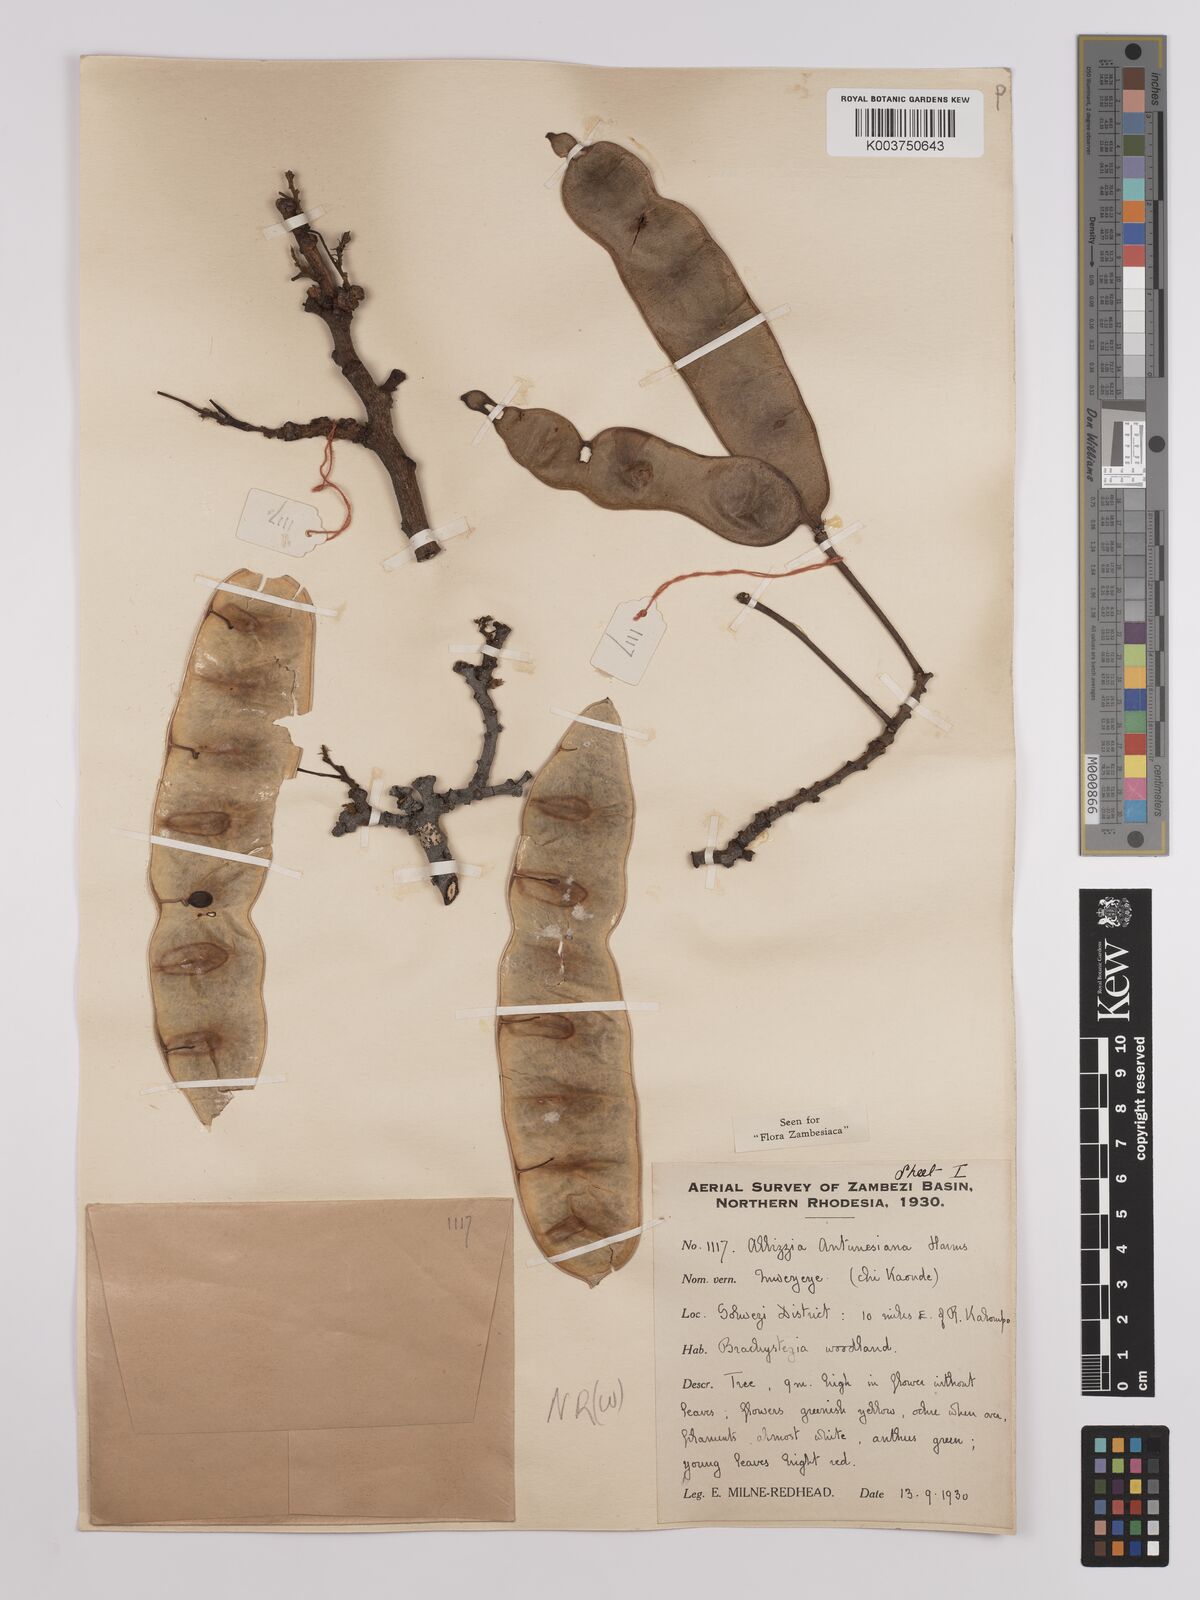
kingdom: Plantae
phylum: Tracheophyta
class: Magnoliopsida
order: Fabales
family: Fabaceae
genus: Albizia
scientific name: Albizia antunesiana
